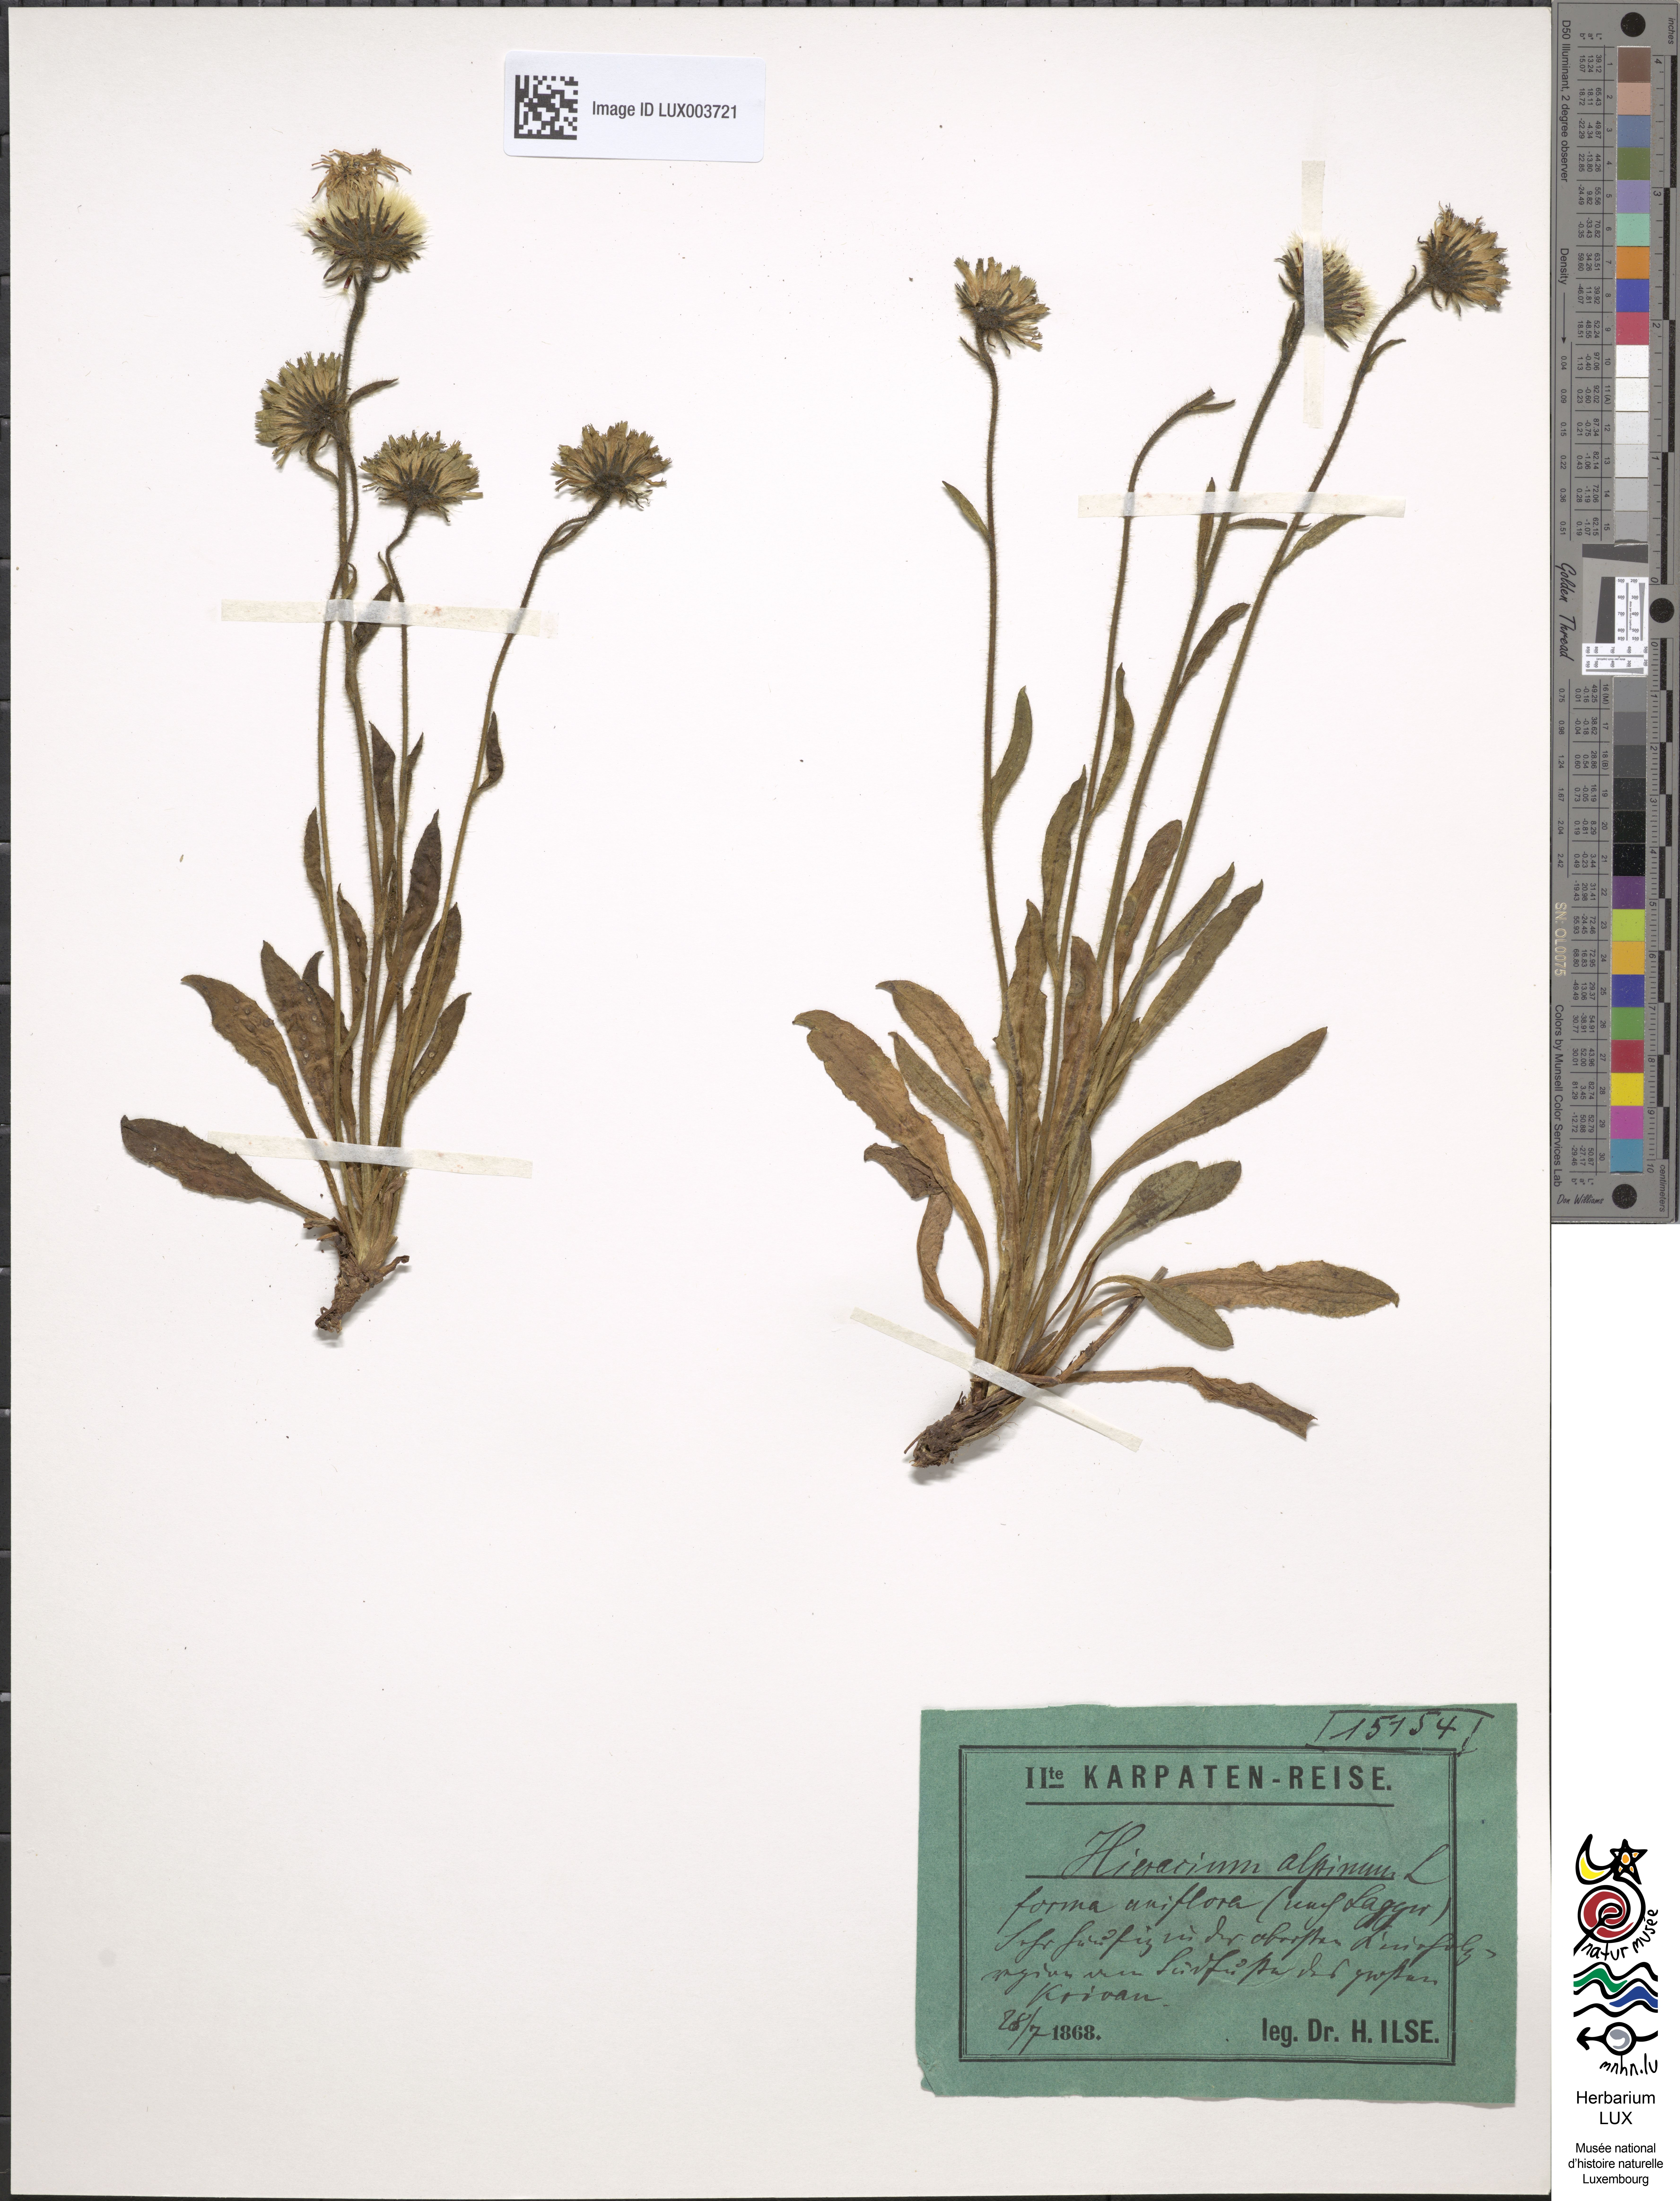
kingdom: Plantae
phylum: Tracheophyta
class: Magnoliopsida
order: Asterales
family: Asteraceae
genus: Hieracium
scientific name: Hieracium alpinum
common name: Alpine hawkweed
